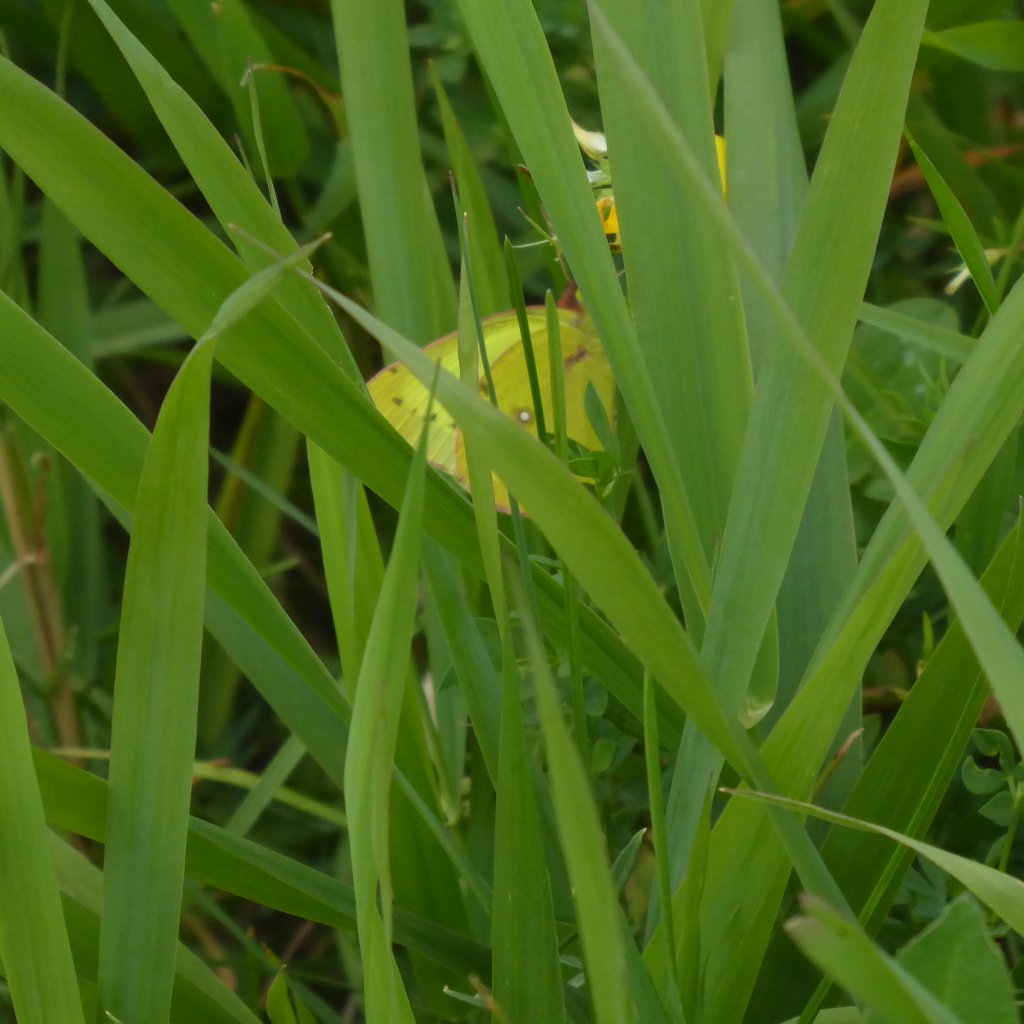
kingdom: Animalia
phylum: Arthropoda
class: Insecta
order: Lepidoptera
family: Pieridae
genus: Colias
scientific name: Colias philodice
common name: Clouded Sulphur
